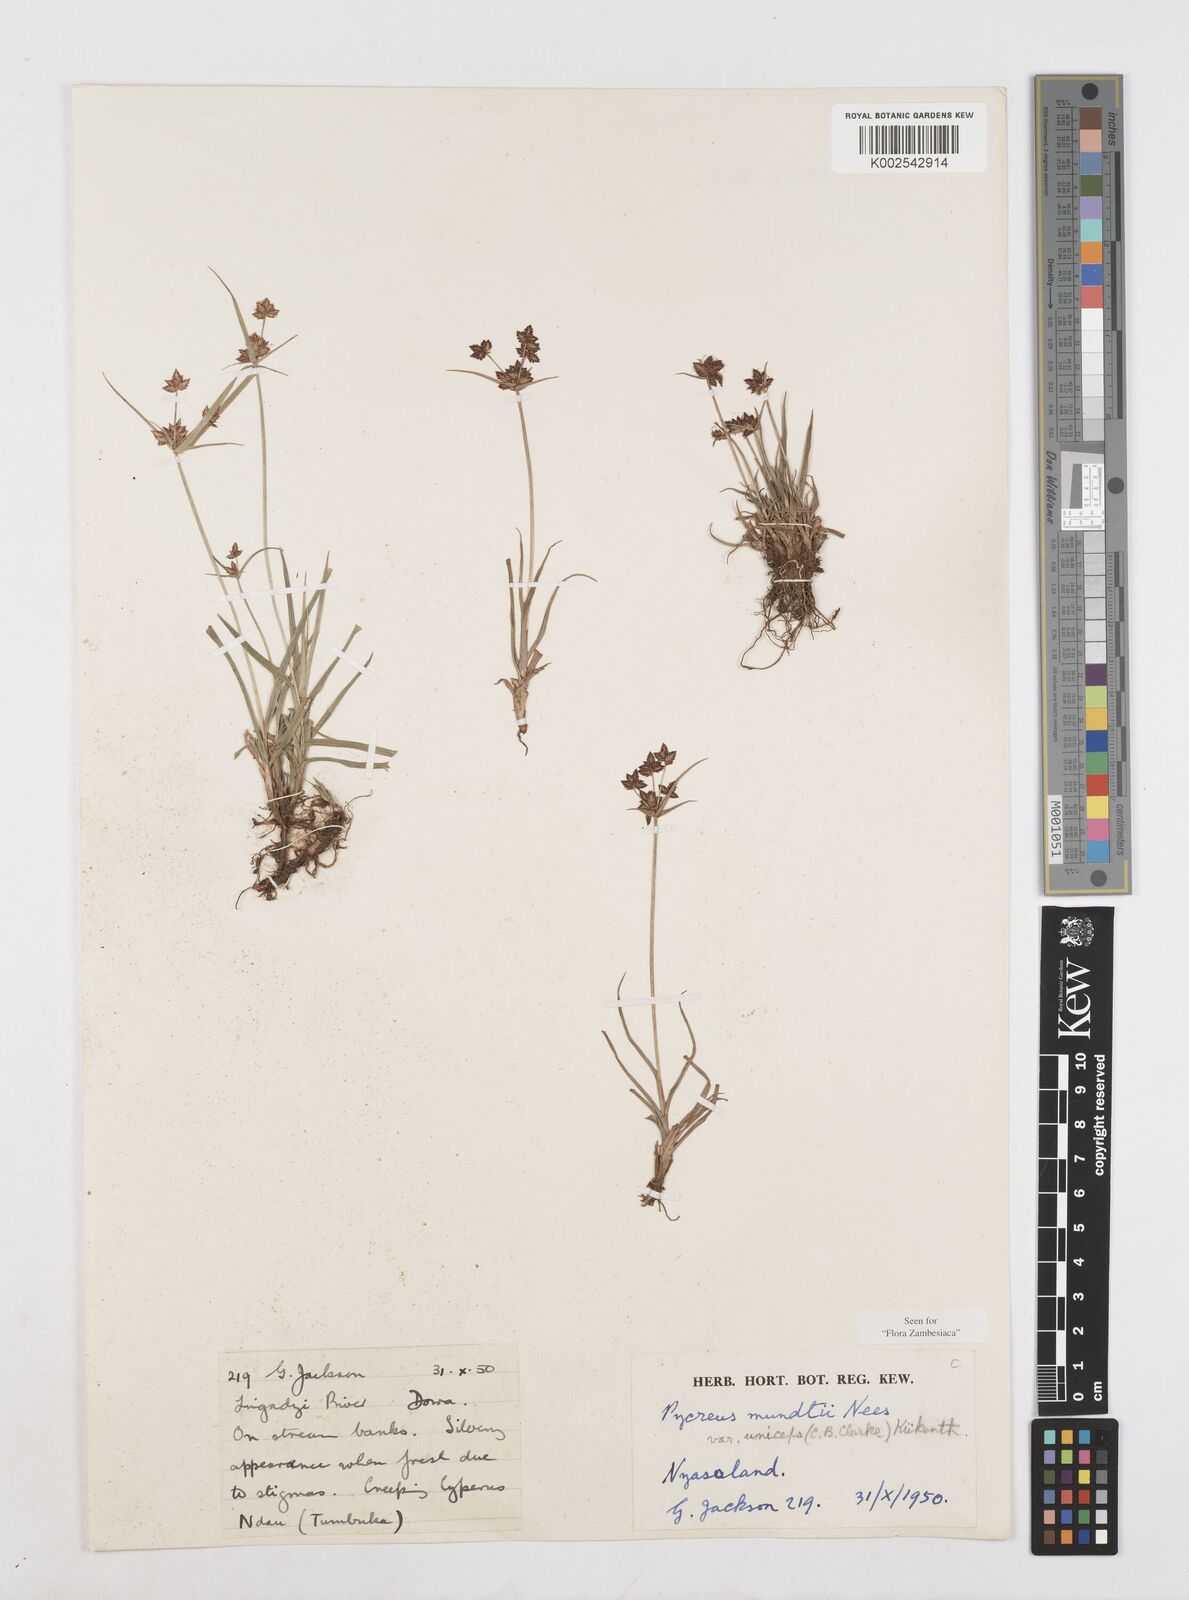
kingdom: Plantae
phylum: Tracheophyta
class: Liliopsida
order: Poales
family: Cyperaceae
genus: Cyperus
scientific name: Cyperus mundii
